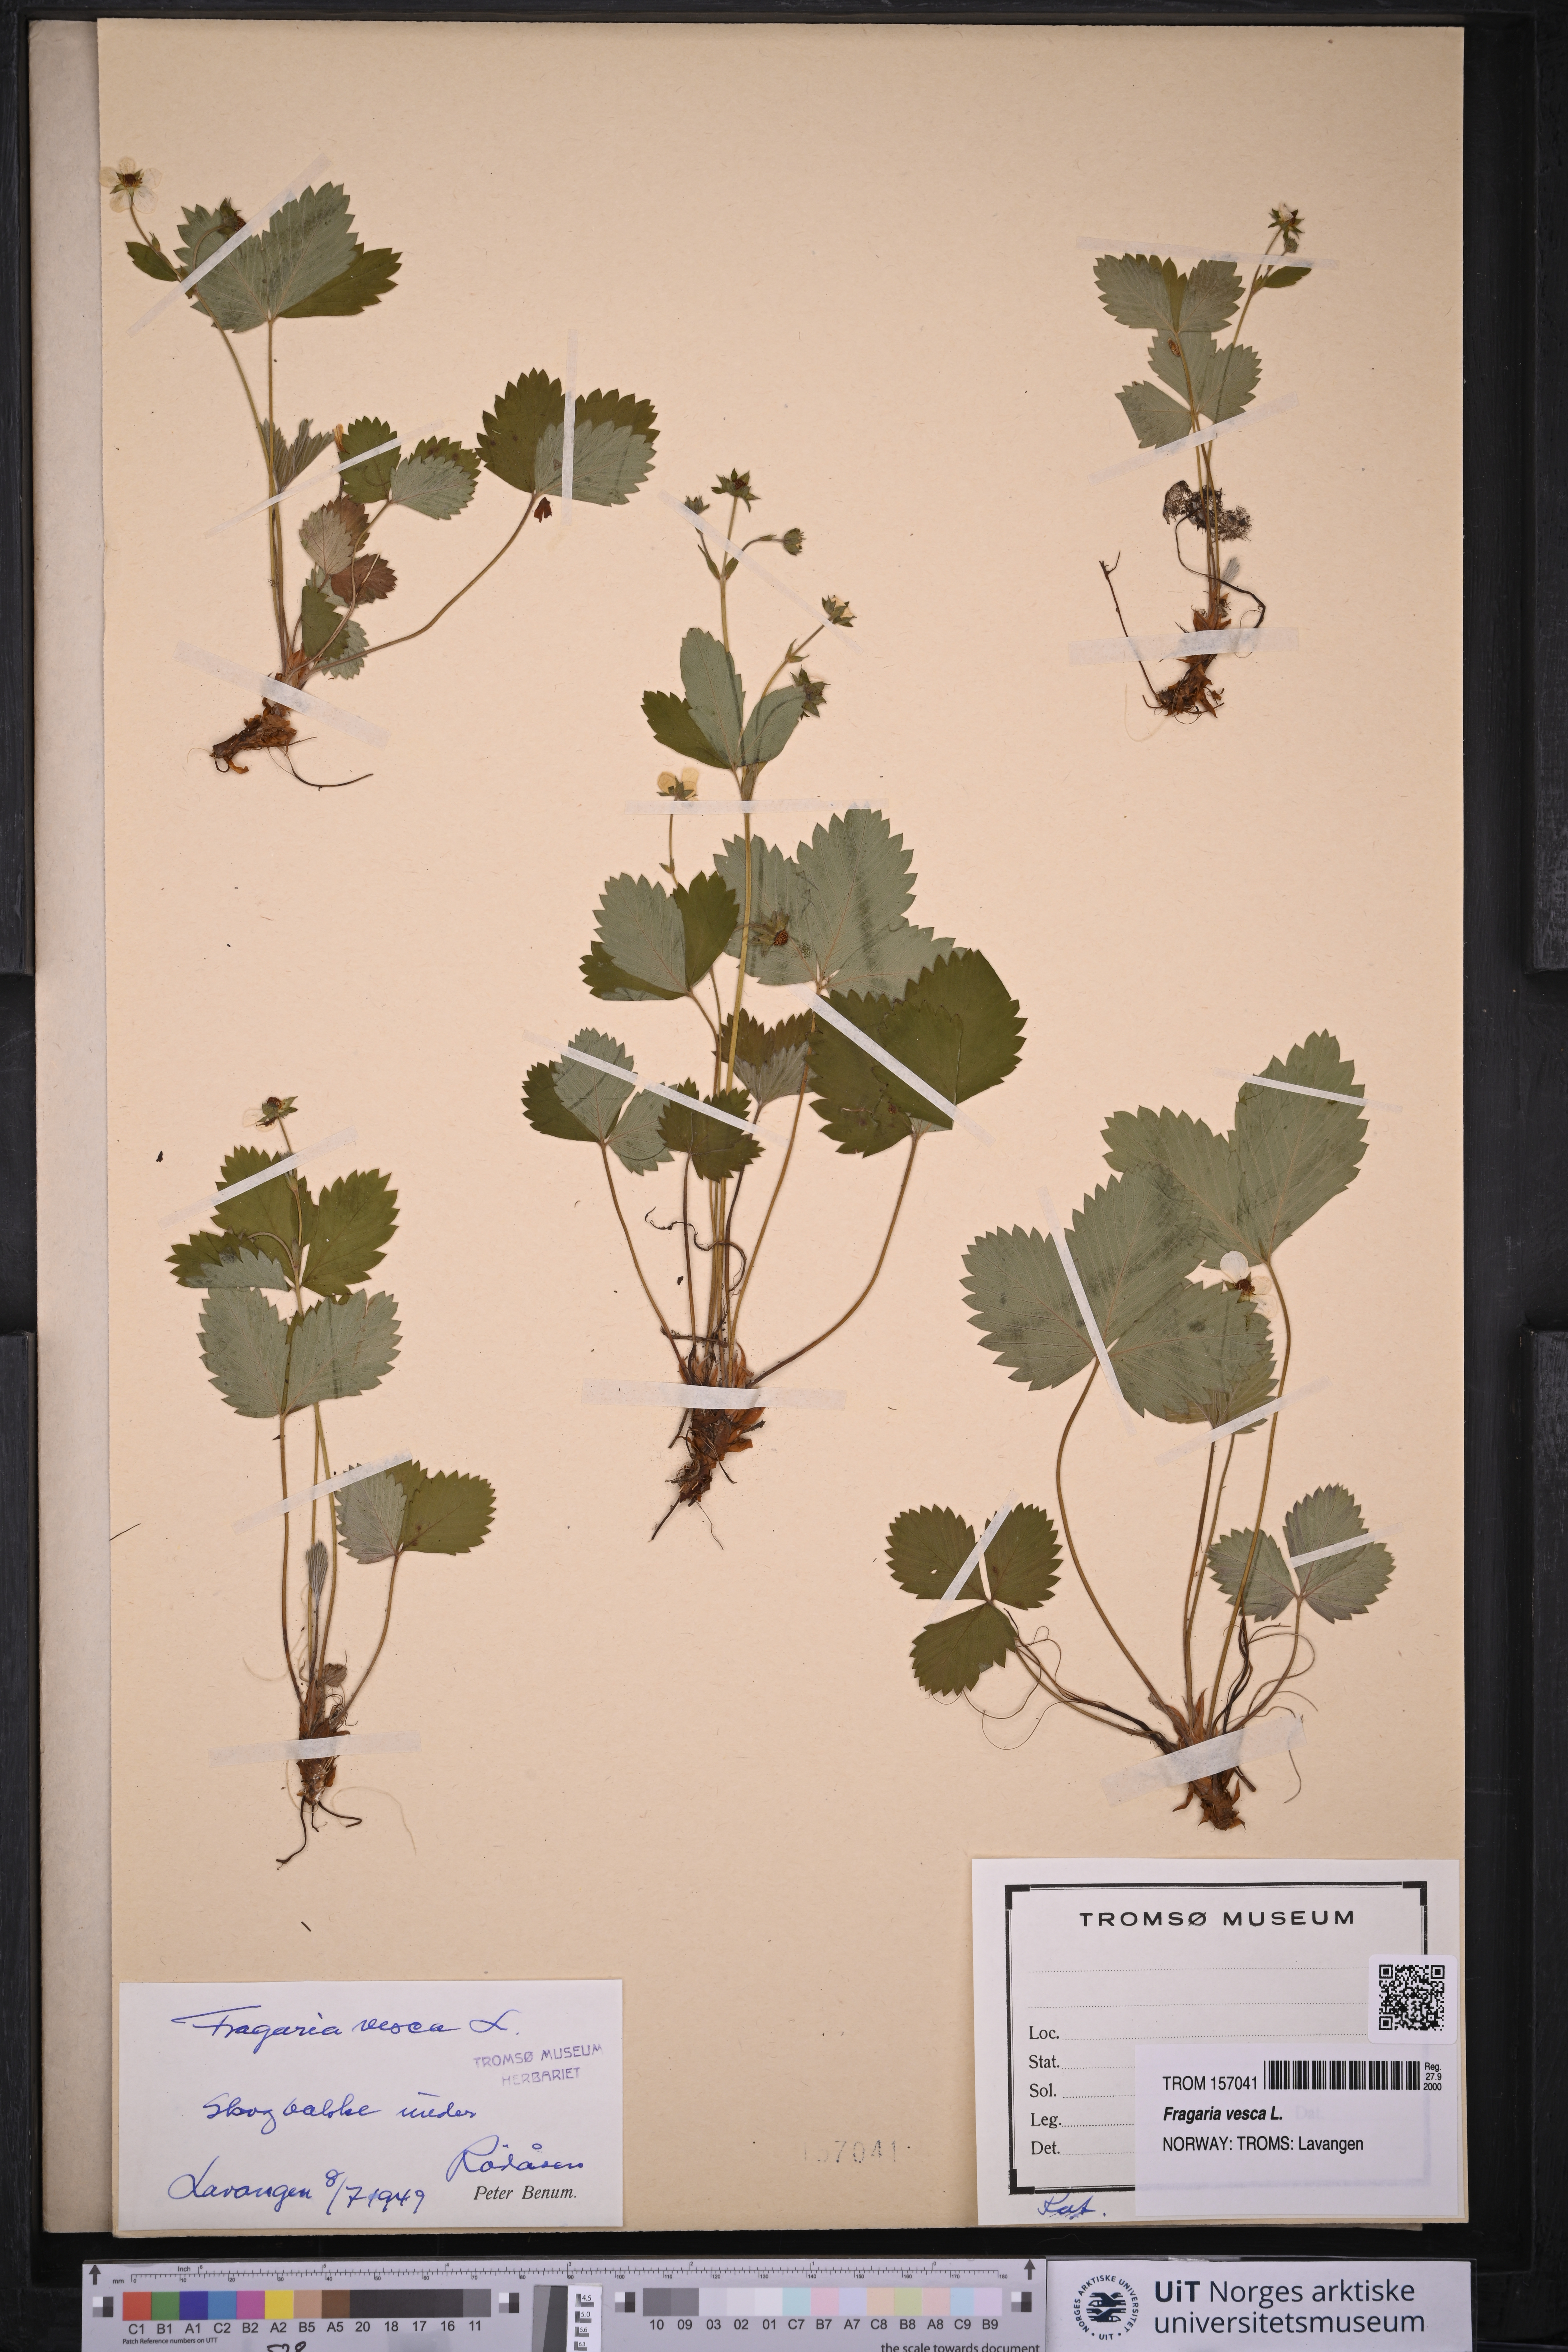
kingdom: Plantae
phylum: Tracheophyta
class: Magnoliopsida
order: Rosales
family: Rosaceae
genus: Fragaria
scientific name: Fragaria vesca
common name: Wild strawberry
